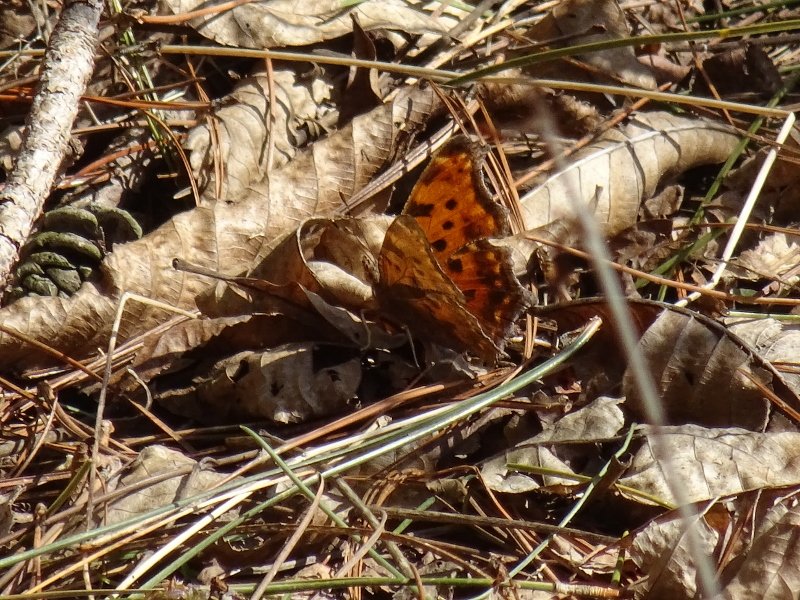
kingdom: Animalia
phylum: Arthropoda
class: Insecta
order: Lepidoptera
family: Nymphalidae
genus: Polygonia
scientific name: Polygonia comma
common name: Eastern Comma
